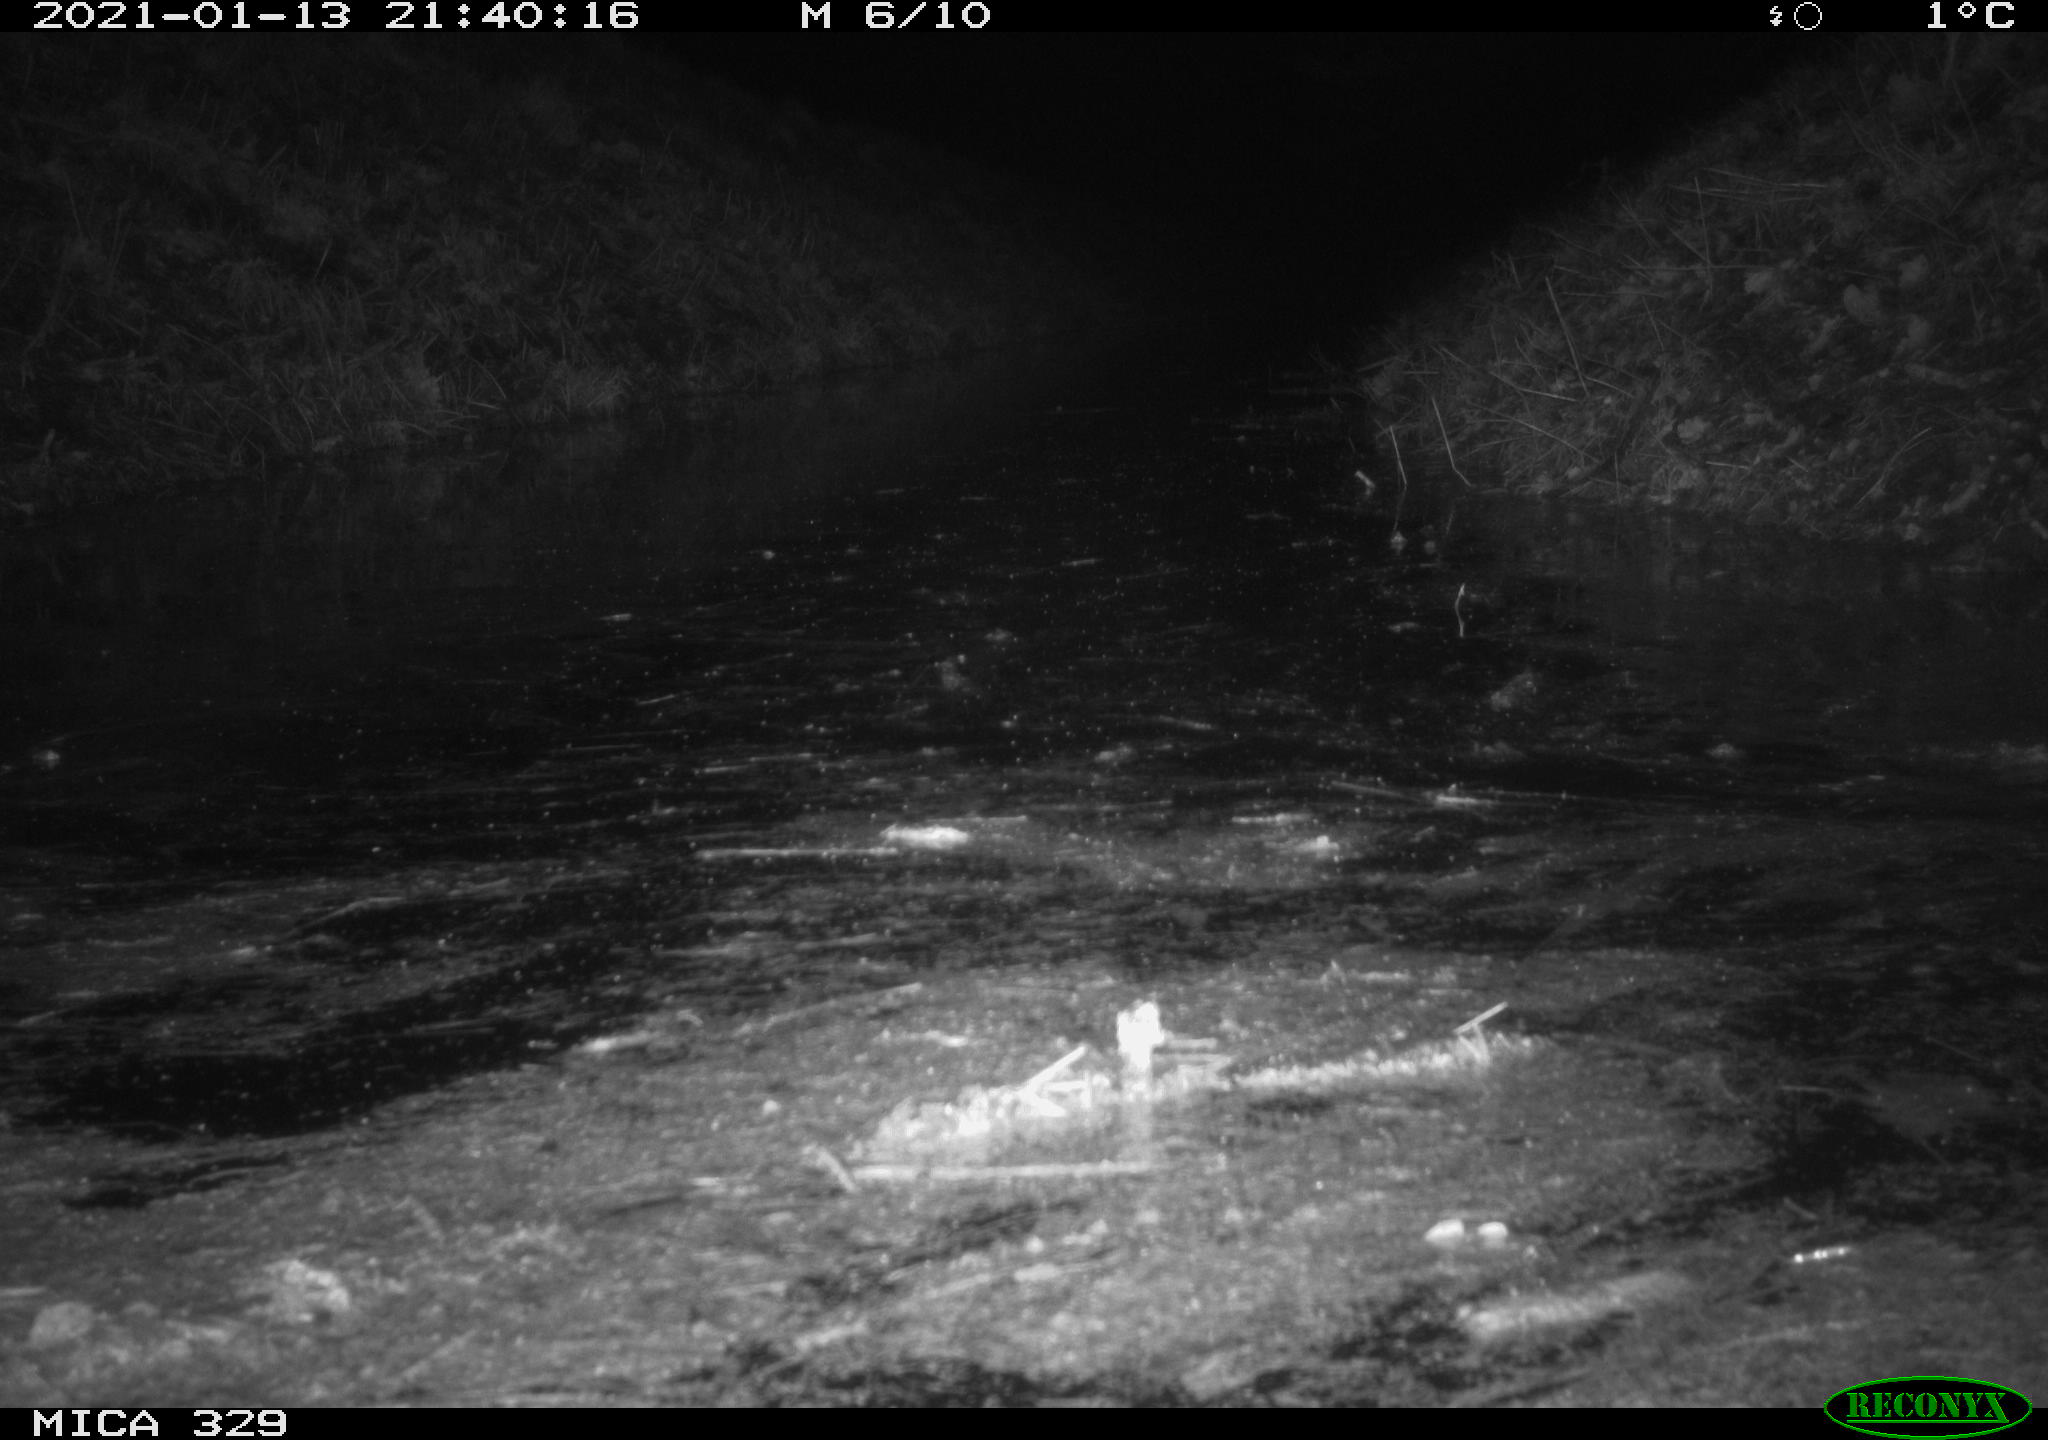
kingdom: Animalia
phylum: Chordata
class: Mammalia
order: Rodentia
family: Cricetidae
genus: Ondatra
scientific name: Ondatra zibethicus
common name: Muskrat
